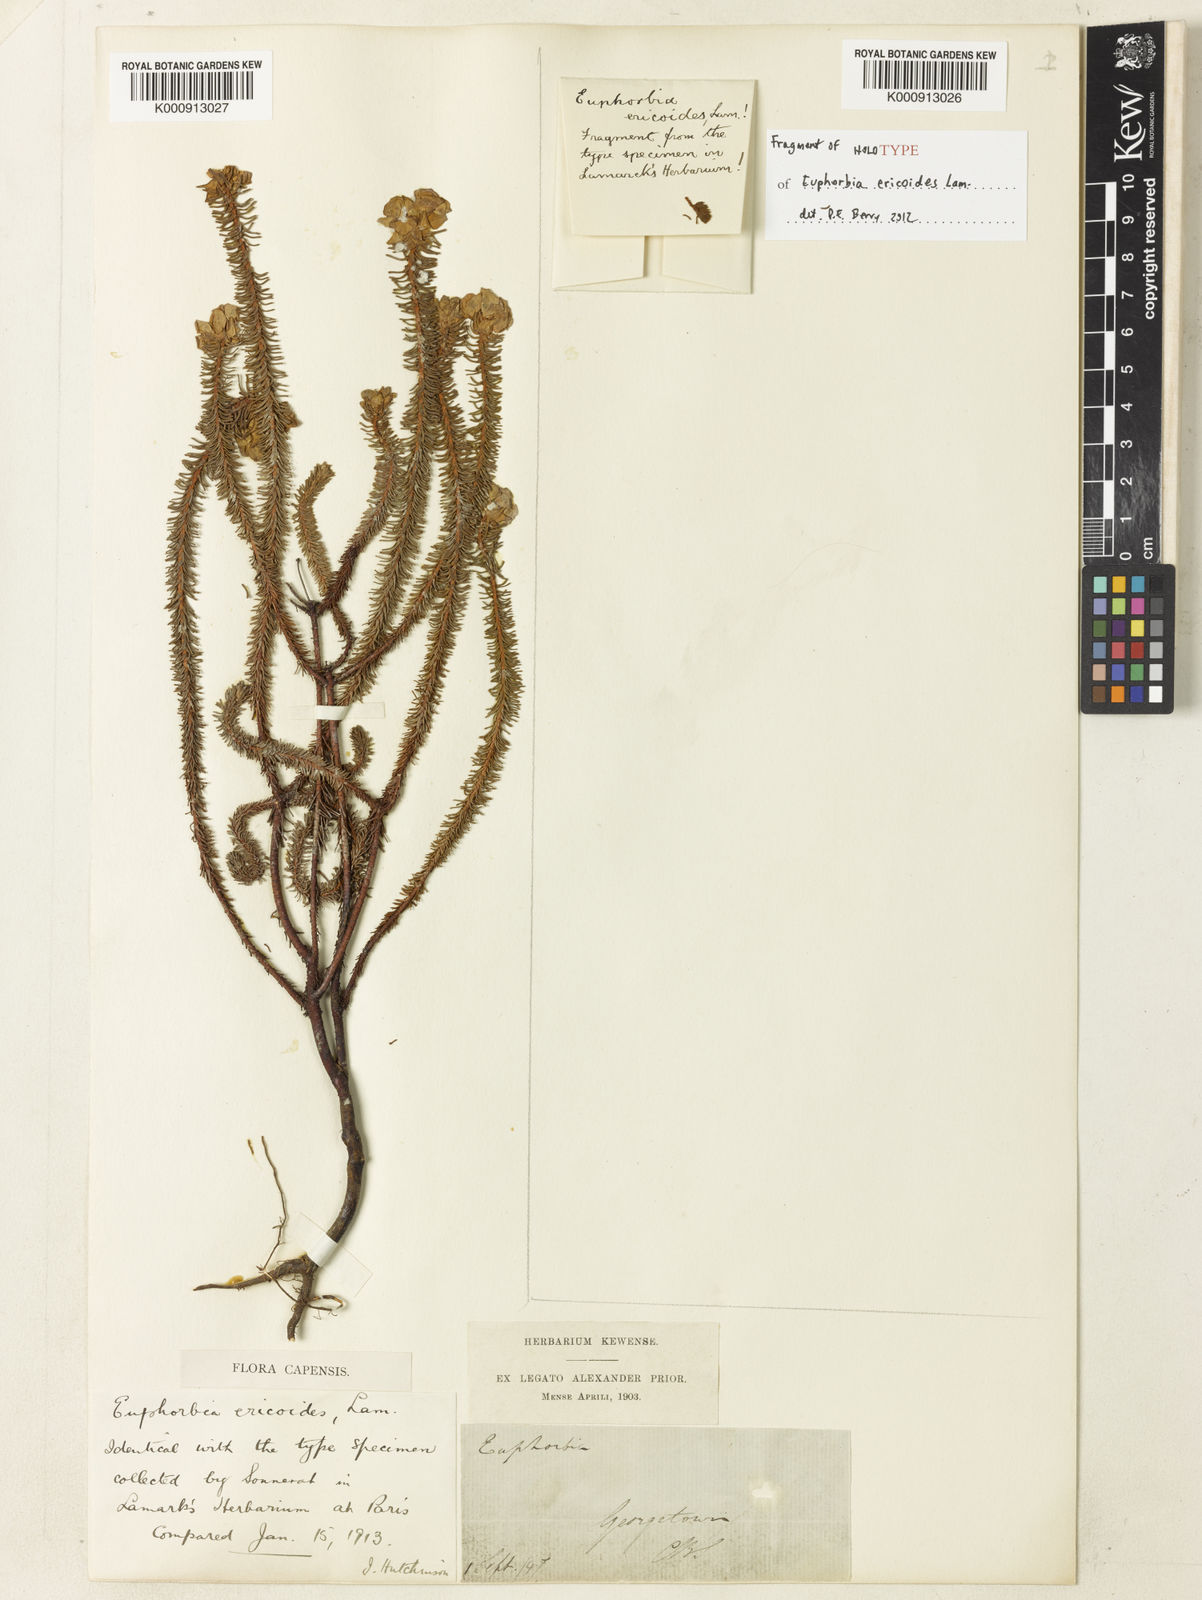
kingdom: Plantae
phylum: Tracheophyta
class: Magnoliopsida
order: Malpighiales
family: Euphorbiaceae
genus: Euphorbia
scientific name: Euphorbia ericoides
